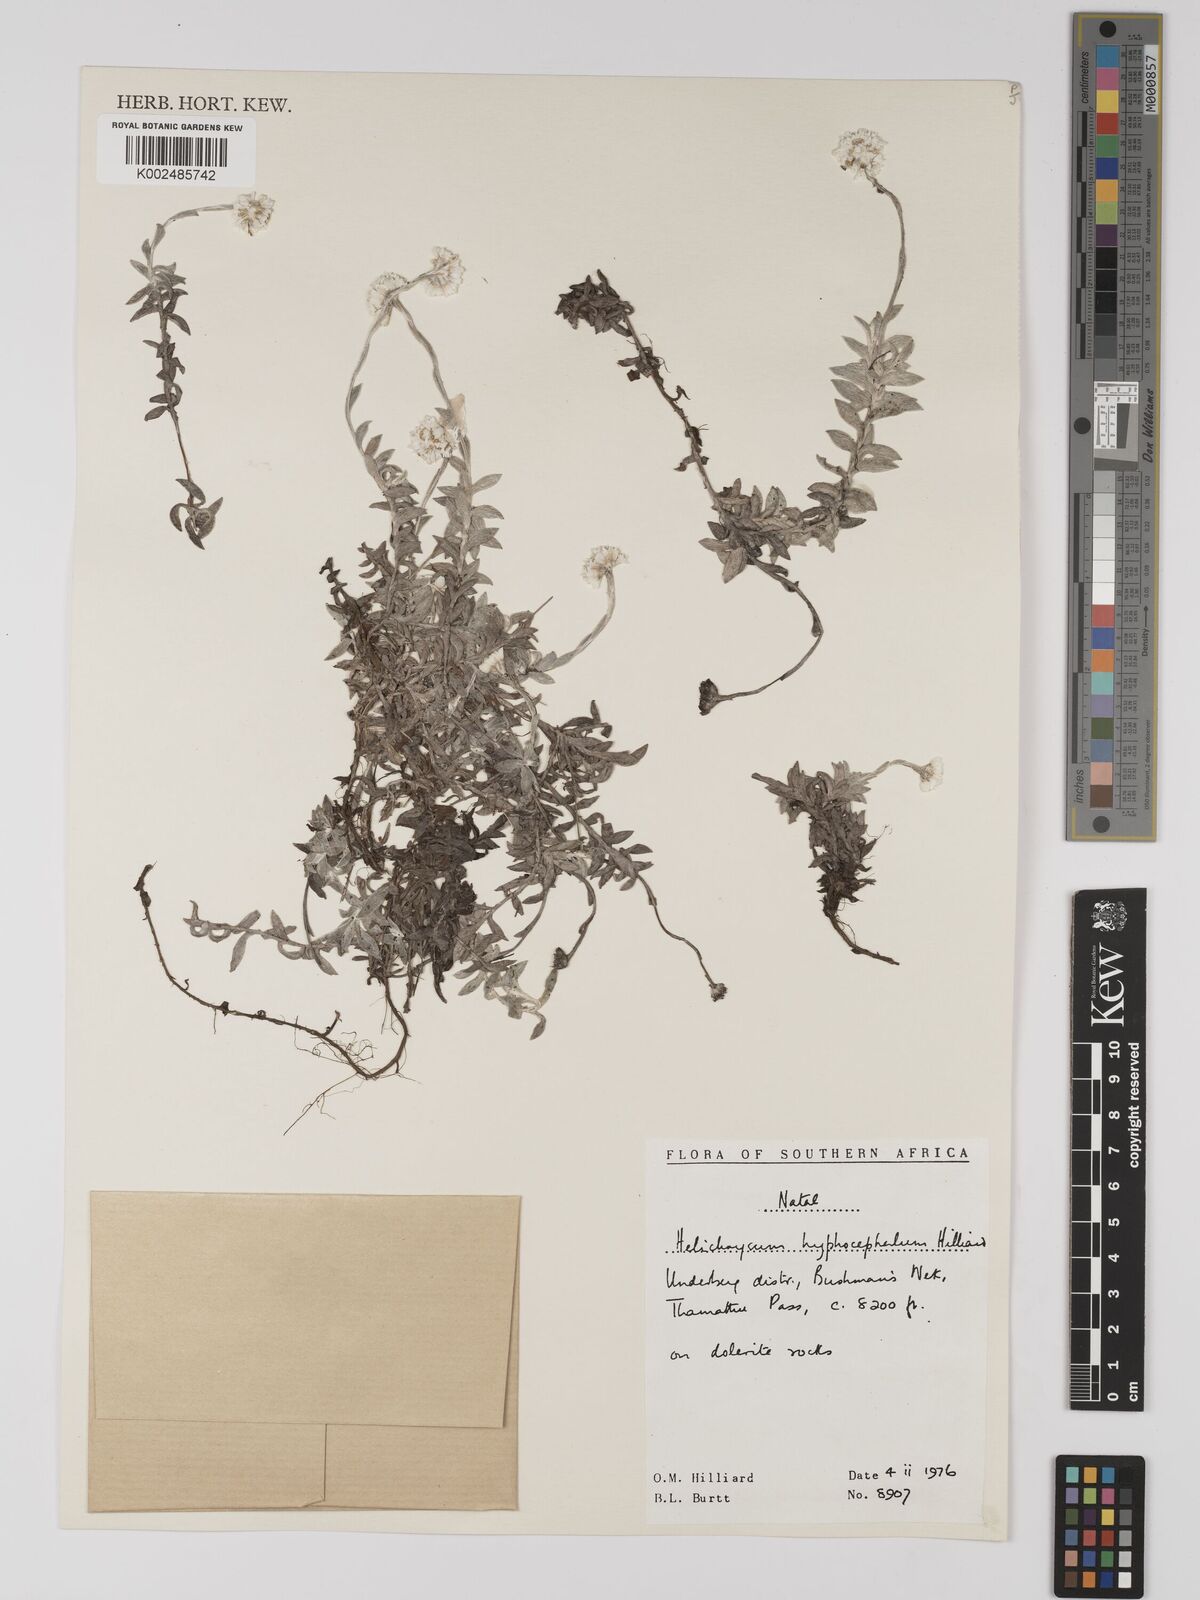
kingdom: Plantae
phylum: Tracheophyta
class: Magnoliopsida
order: Asterales
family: Asteraceae
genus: Helichrysum
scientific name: Helichrysum hyphocephalum
